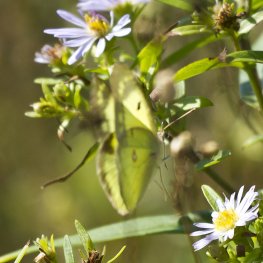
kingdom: Animalia
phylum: Arthropoda
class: Insecta
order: Lepidoptera
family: Pieridae
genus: Colias
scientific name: Colias philodice
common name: Clouded Sulphur
